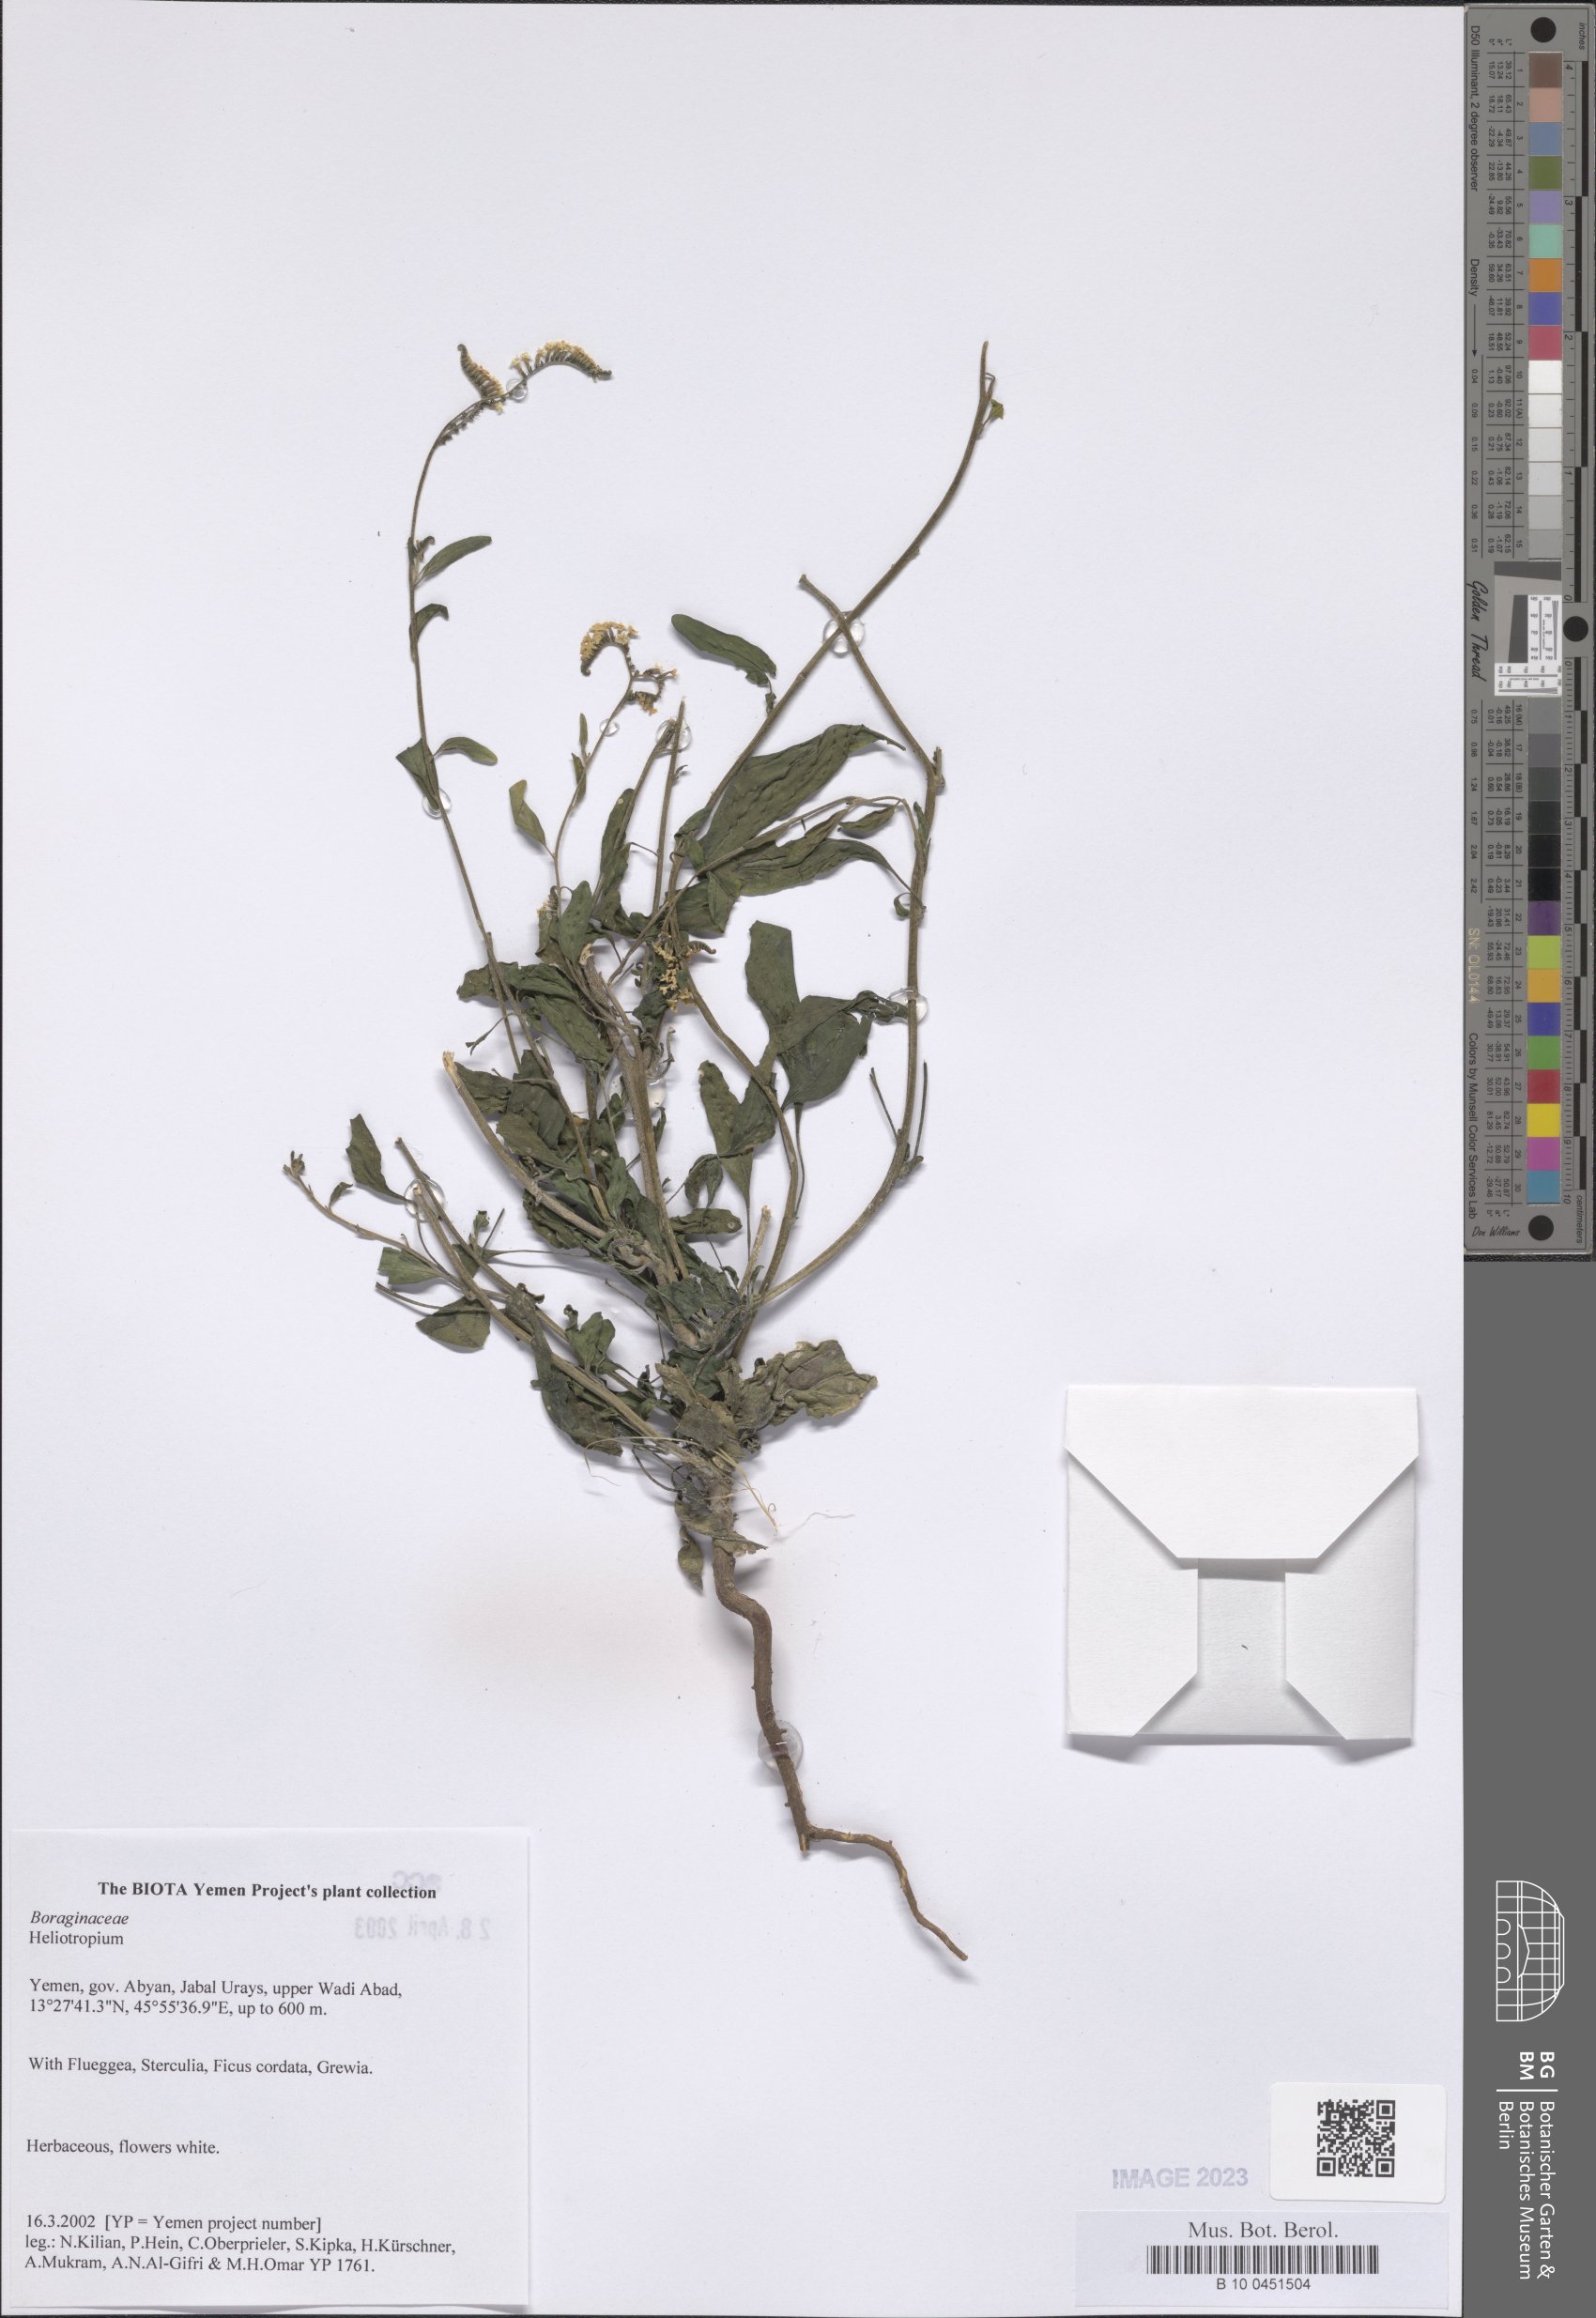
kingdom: Plantae
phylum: Tracheophyta
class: Magnoliopsida
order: Boraginales
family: Heliotropiaceae
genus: Heliotropium
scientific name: Heliotropium
